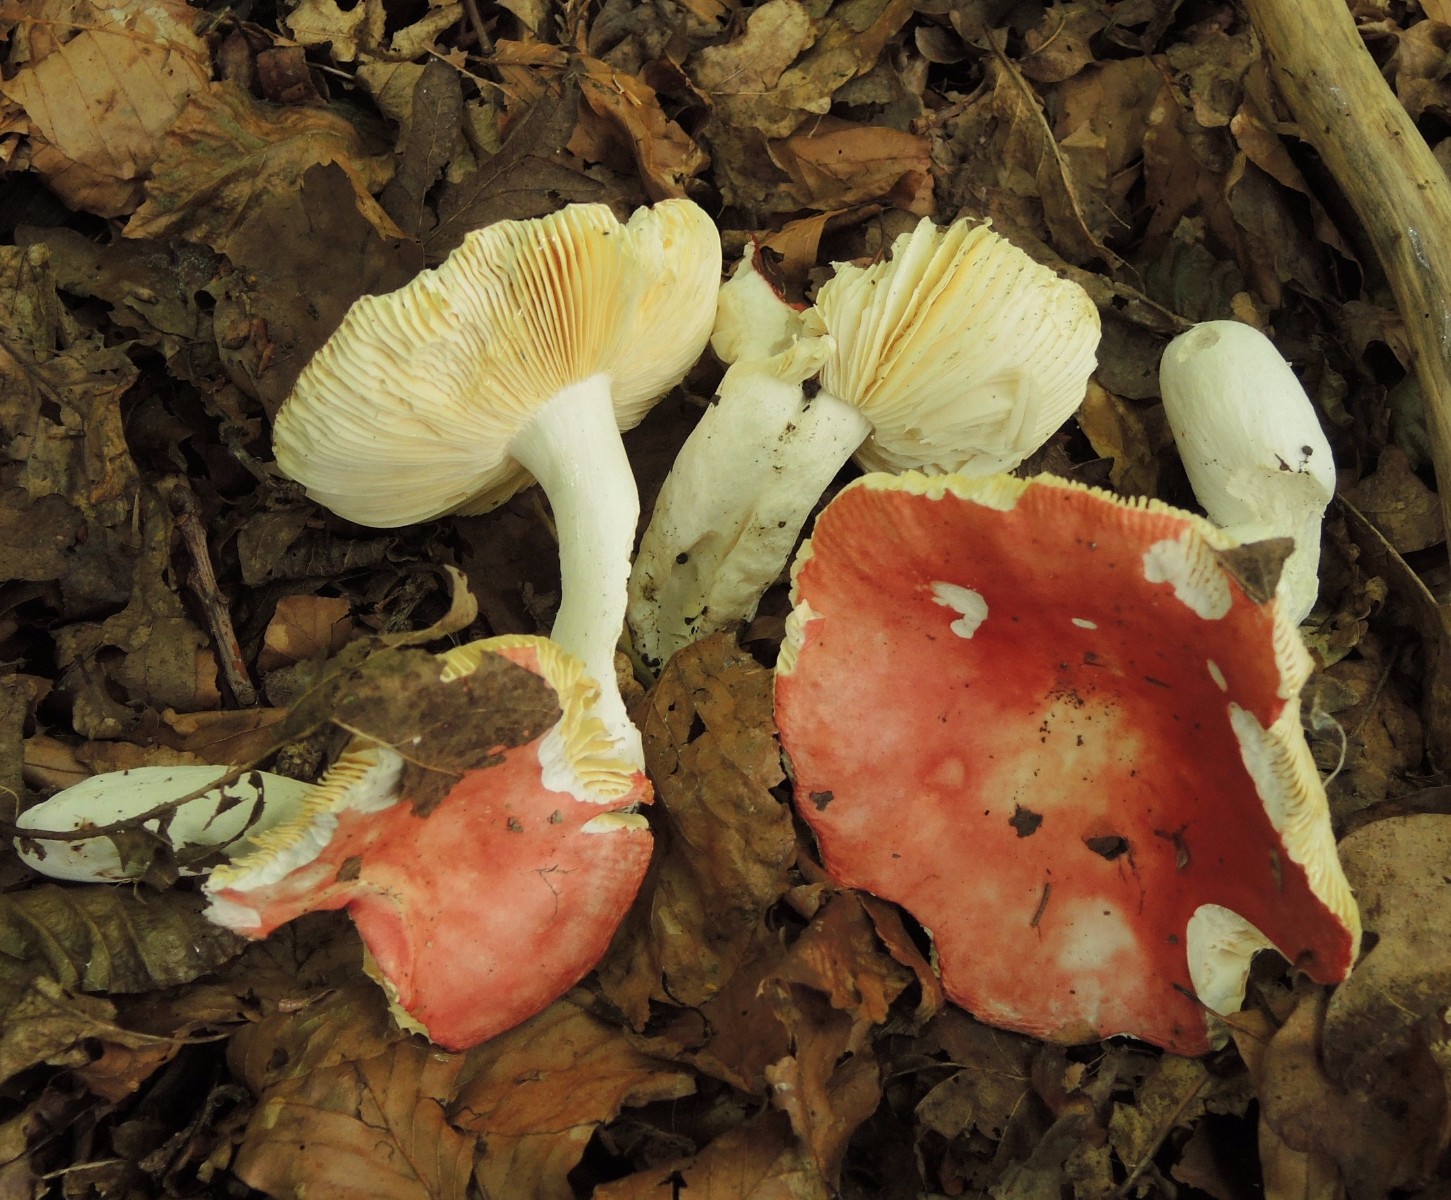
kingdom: Fungi
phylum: Basidiomycota
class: Agaricomycetes
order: Russulales
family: Russulaceae
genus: Russula
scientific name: Russula pseudointegra
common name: cinnoberrød skørhat
